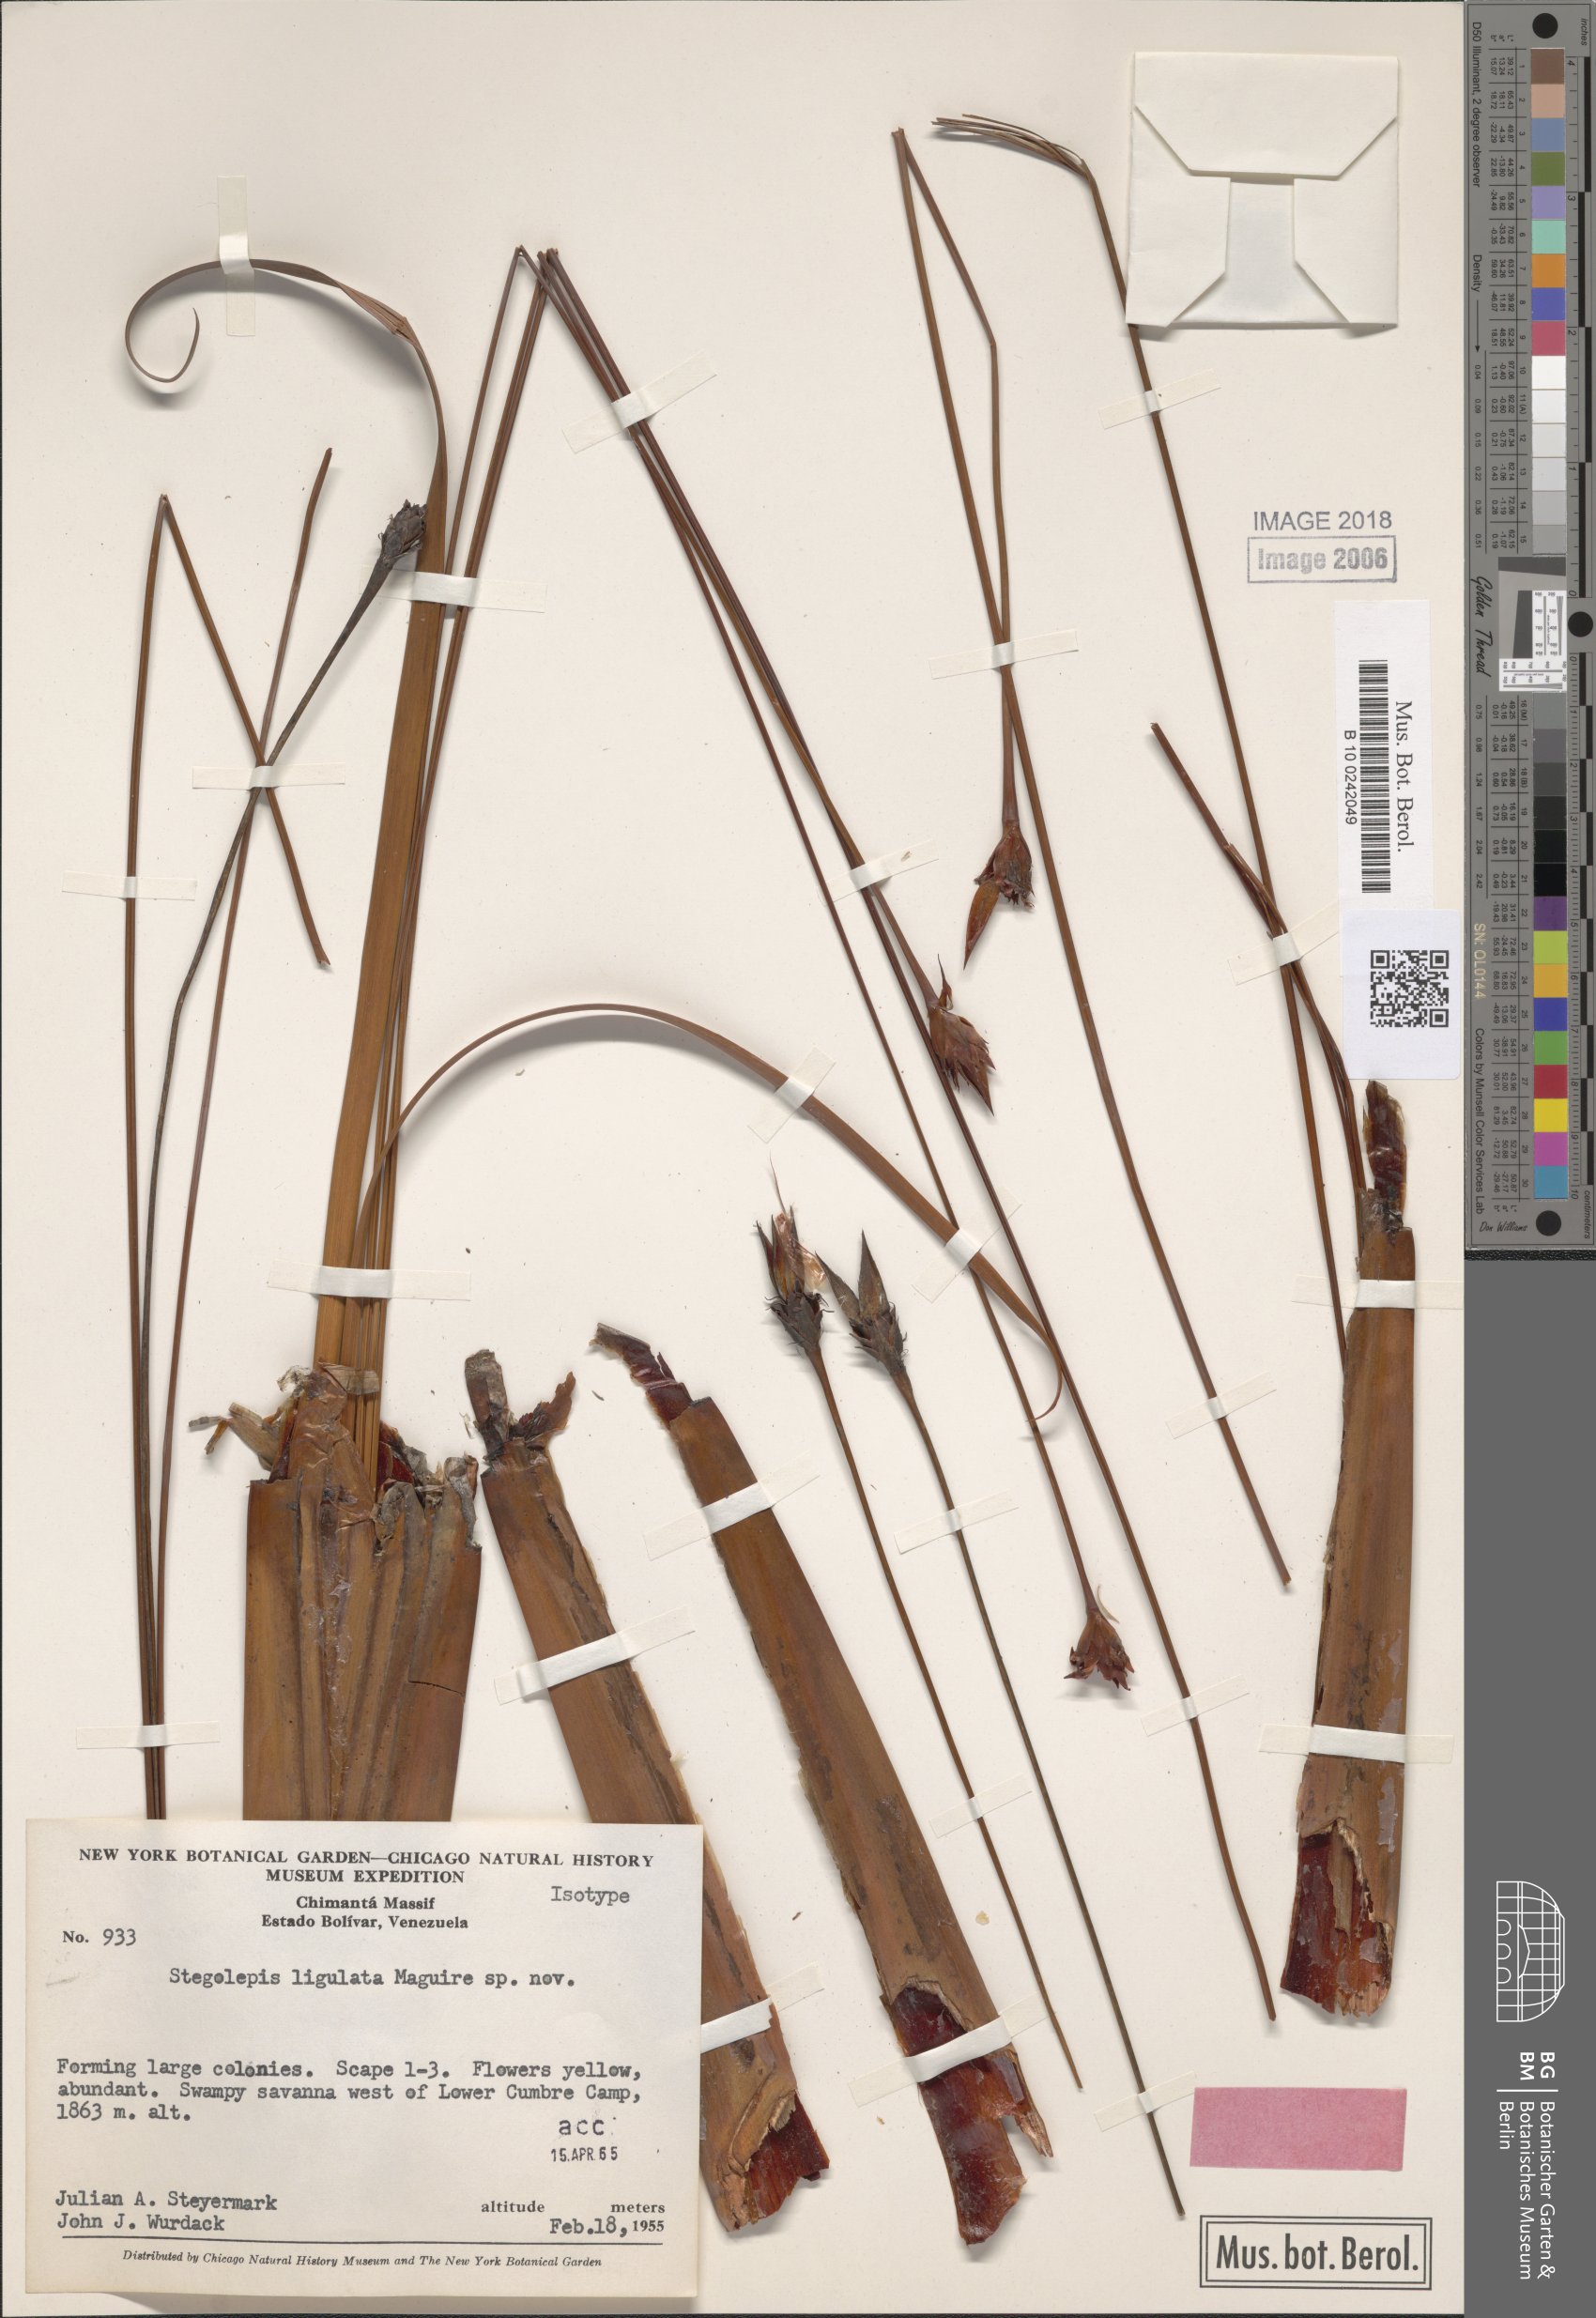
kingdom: Plantae
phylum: Tracheophyta
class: Liliopsida
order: Poales
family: Rapateaceae
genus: Stegolepis
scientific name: Stegolepis ligulata
